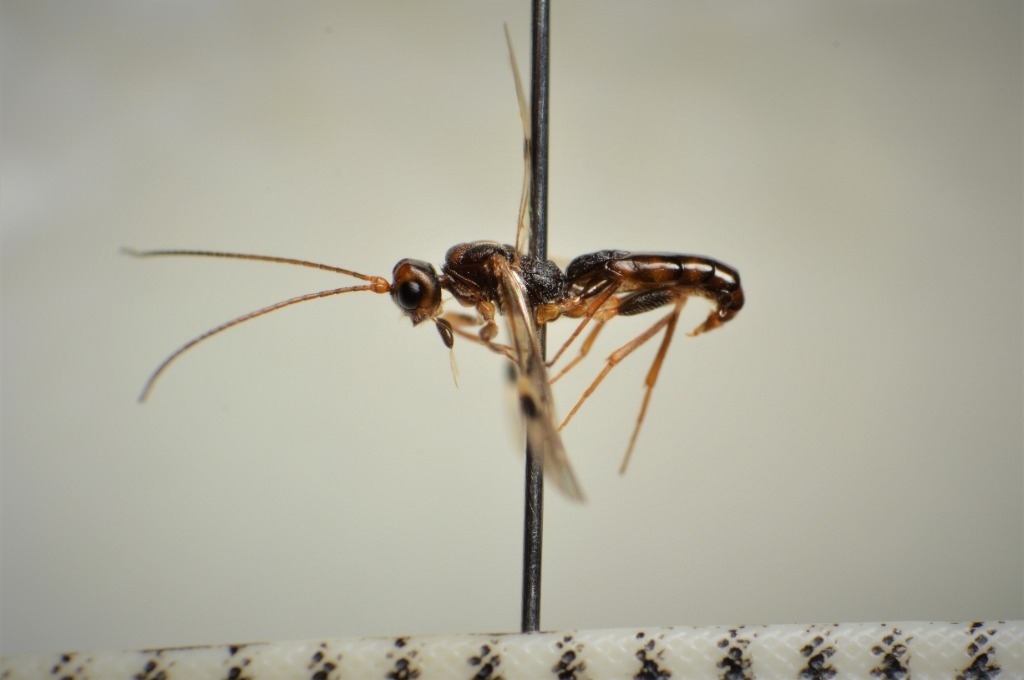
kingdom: Animalia
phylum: Arthropoda
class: Insecta
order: Hymenoptera
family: Braconidae
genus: Dendrosoter
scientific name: Dendrosoter protuberans
